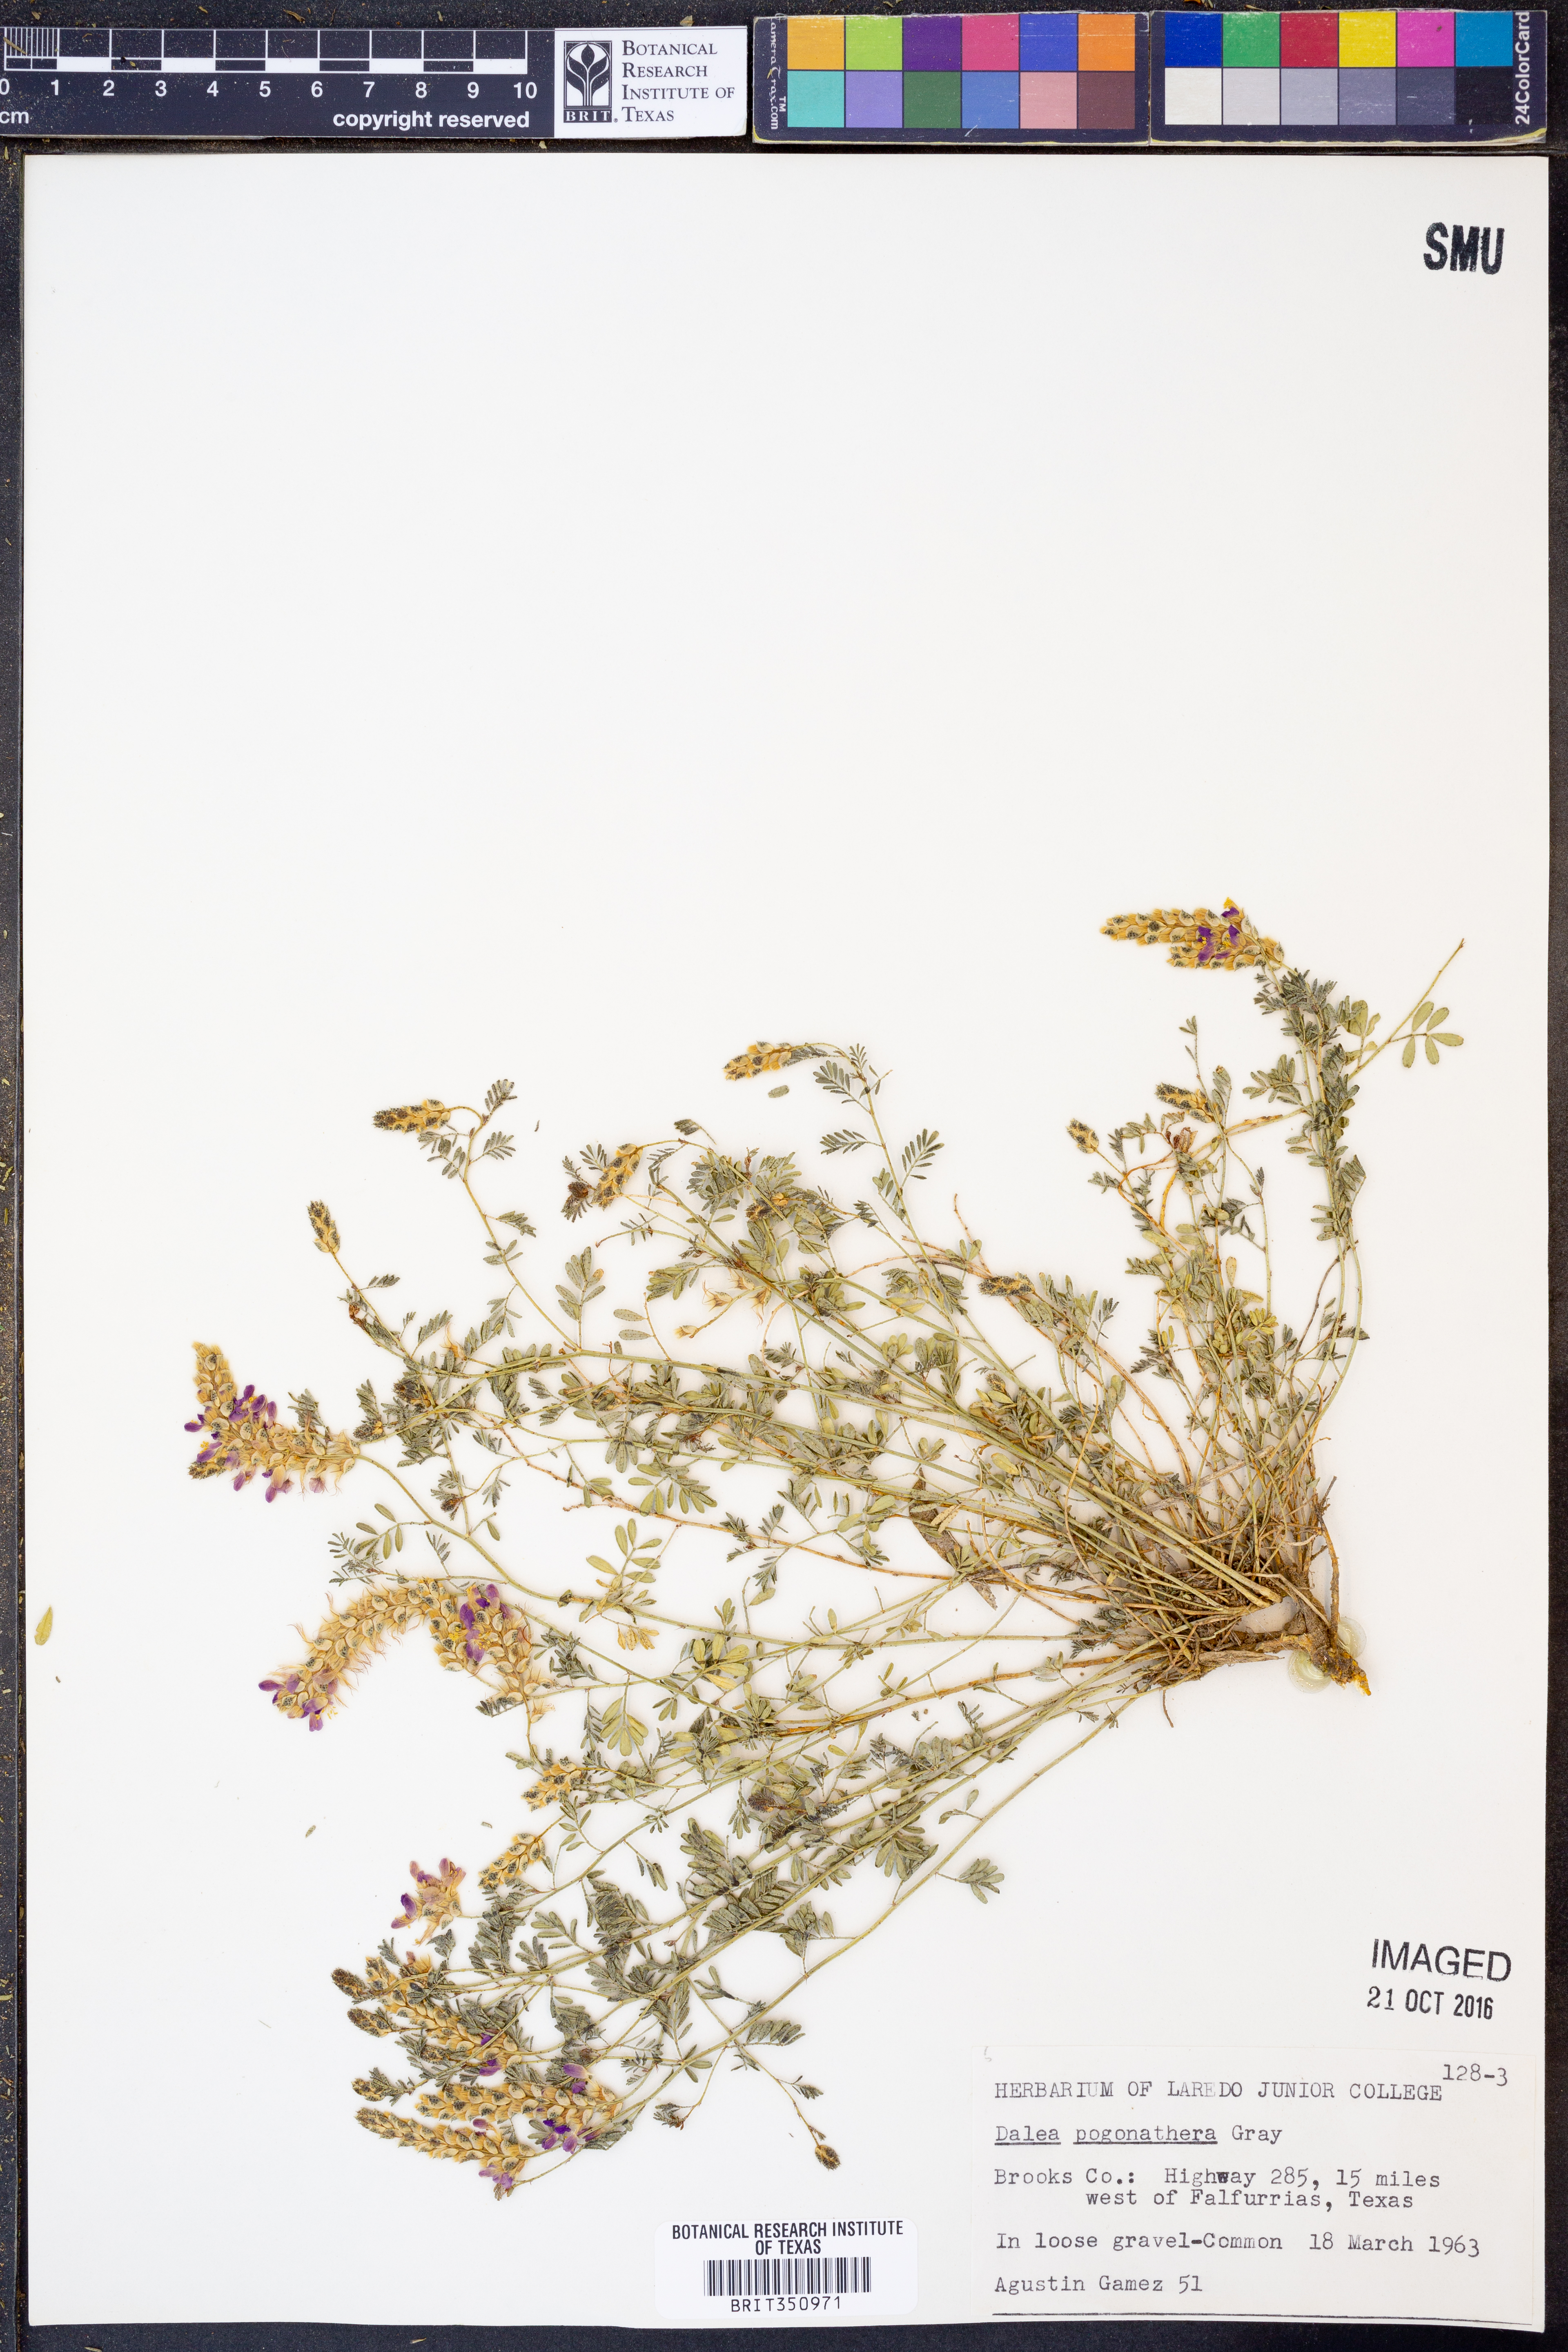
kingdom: Plantae
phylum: Tracheophyta
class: Magnoliopsida
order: Fabales
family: Fabaceae
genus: Dalea
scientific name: Dalea pogonathera
